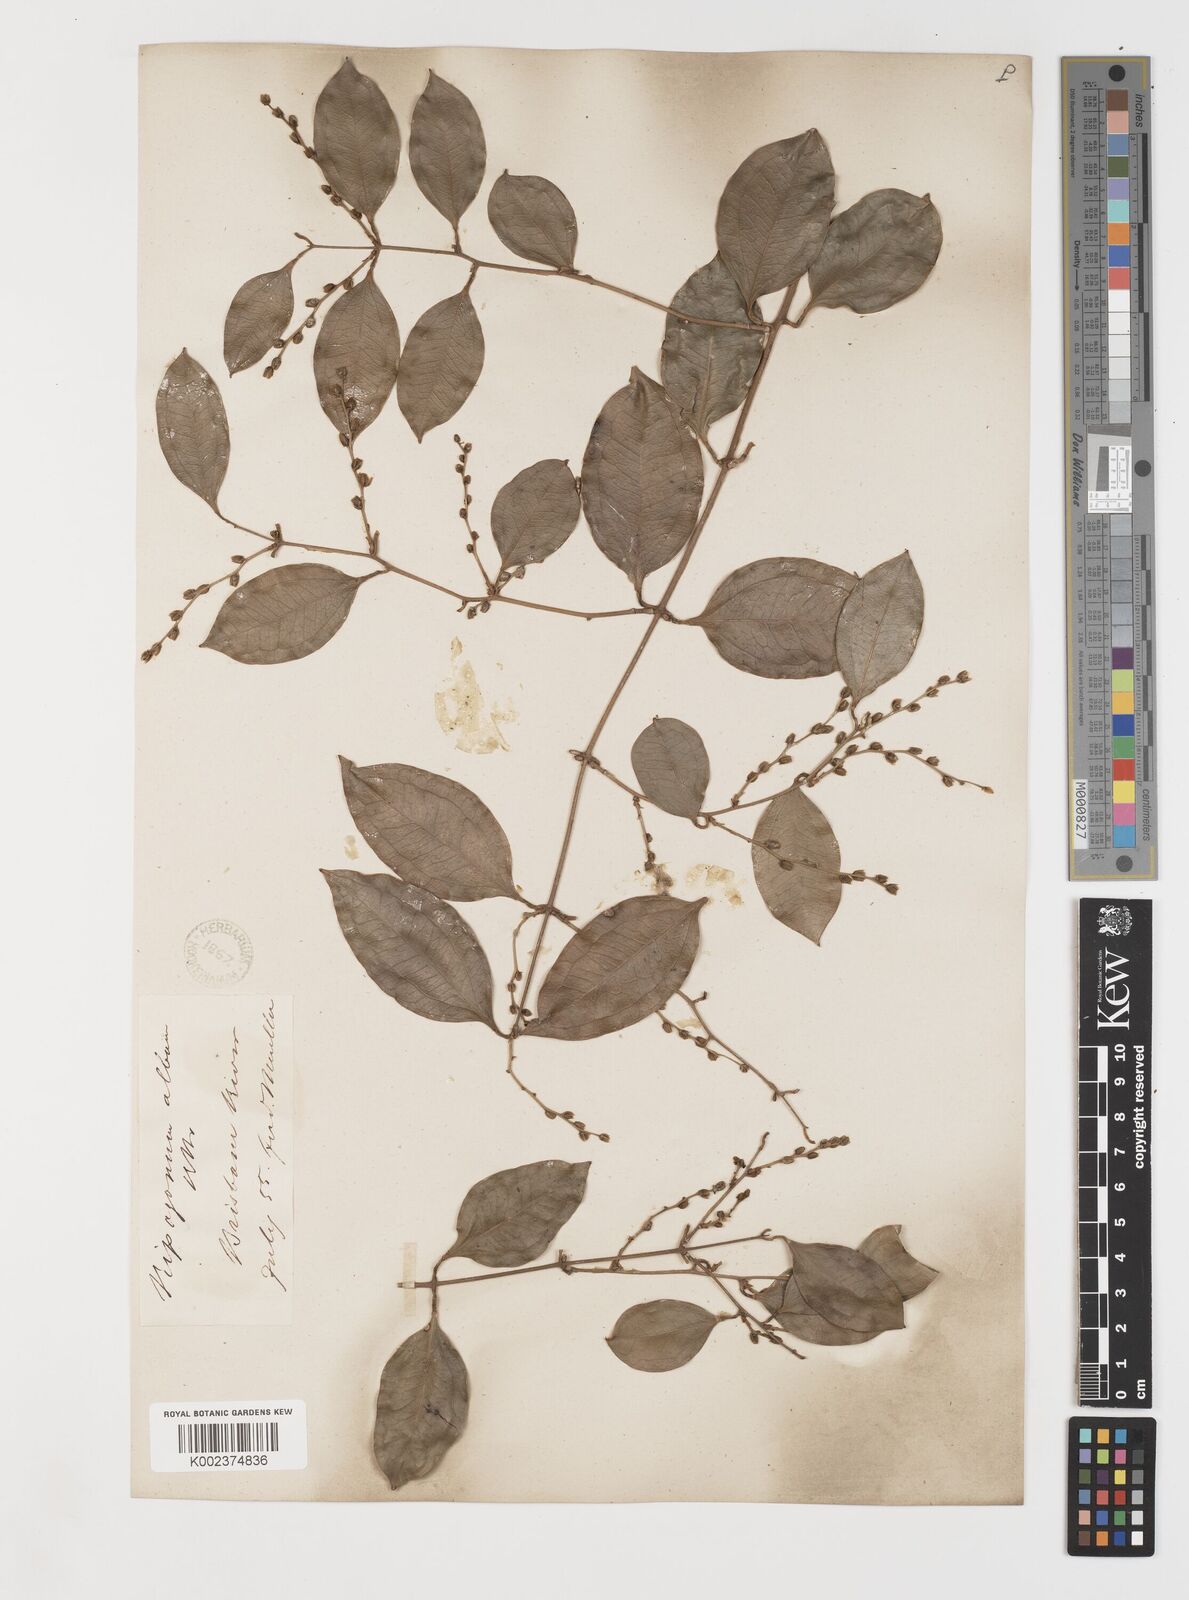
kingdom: Plantae
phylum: Tracheophyta
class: Liliopsida
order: Liliales
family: Ripogonaceae
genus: Ripogonum
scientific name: Ripogonum album
